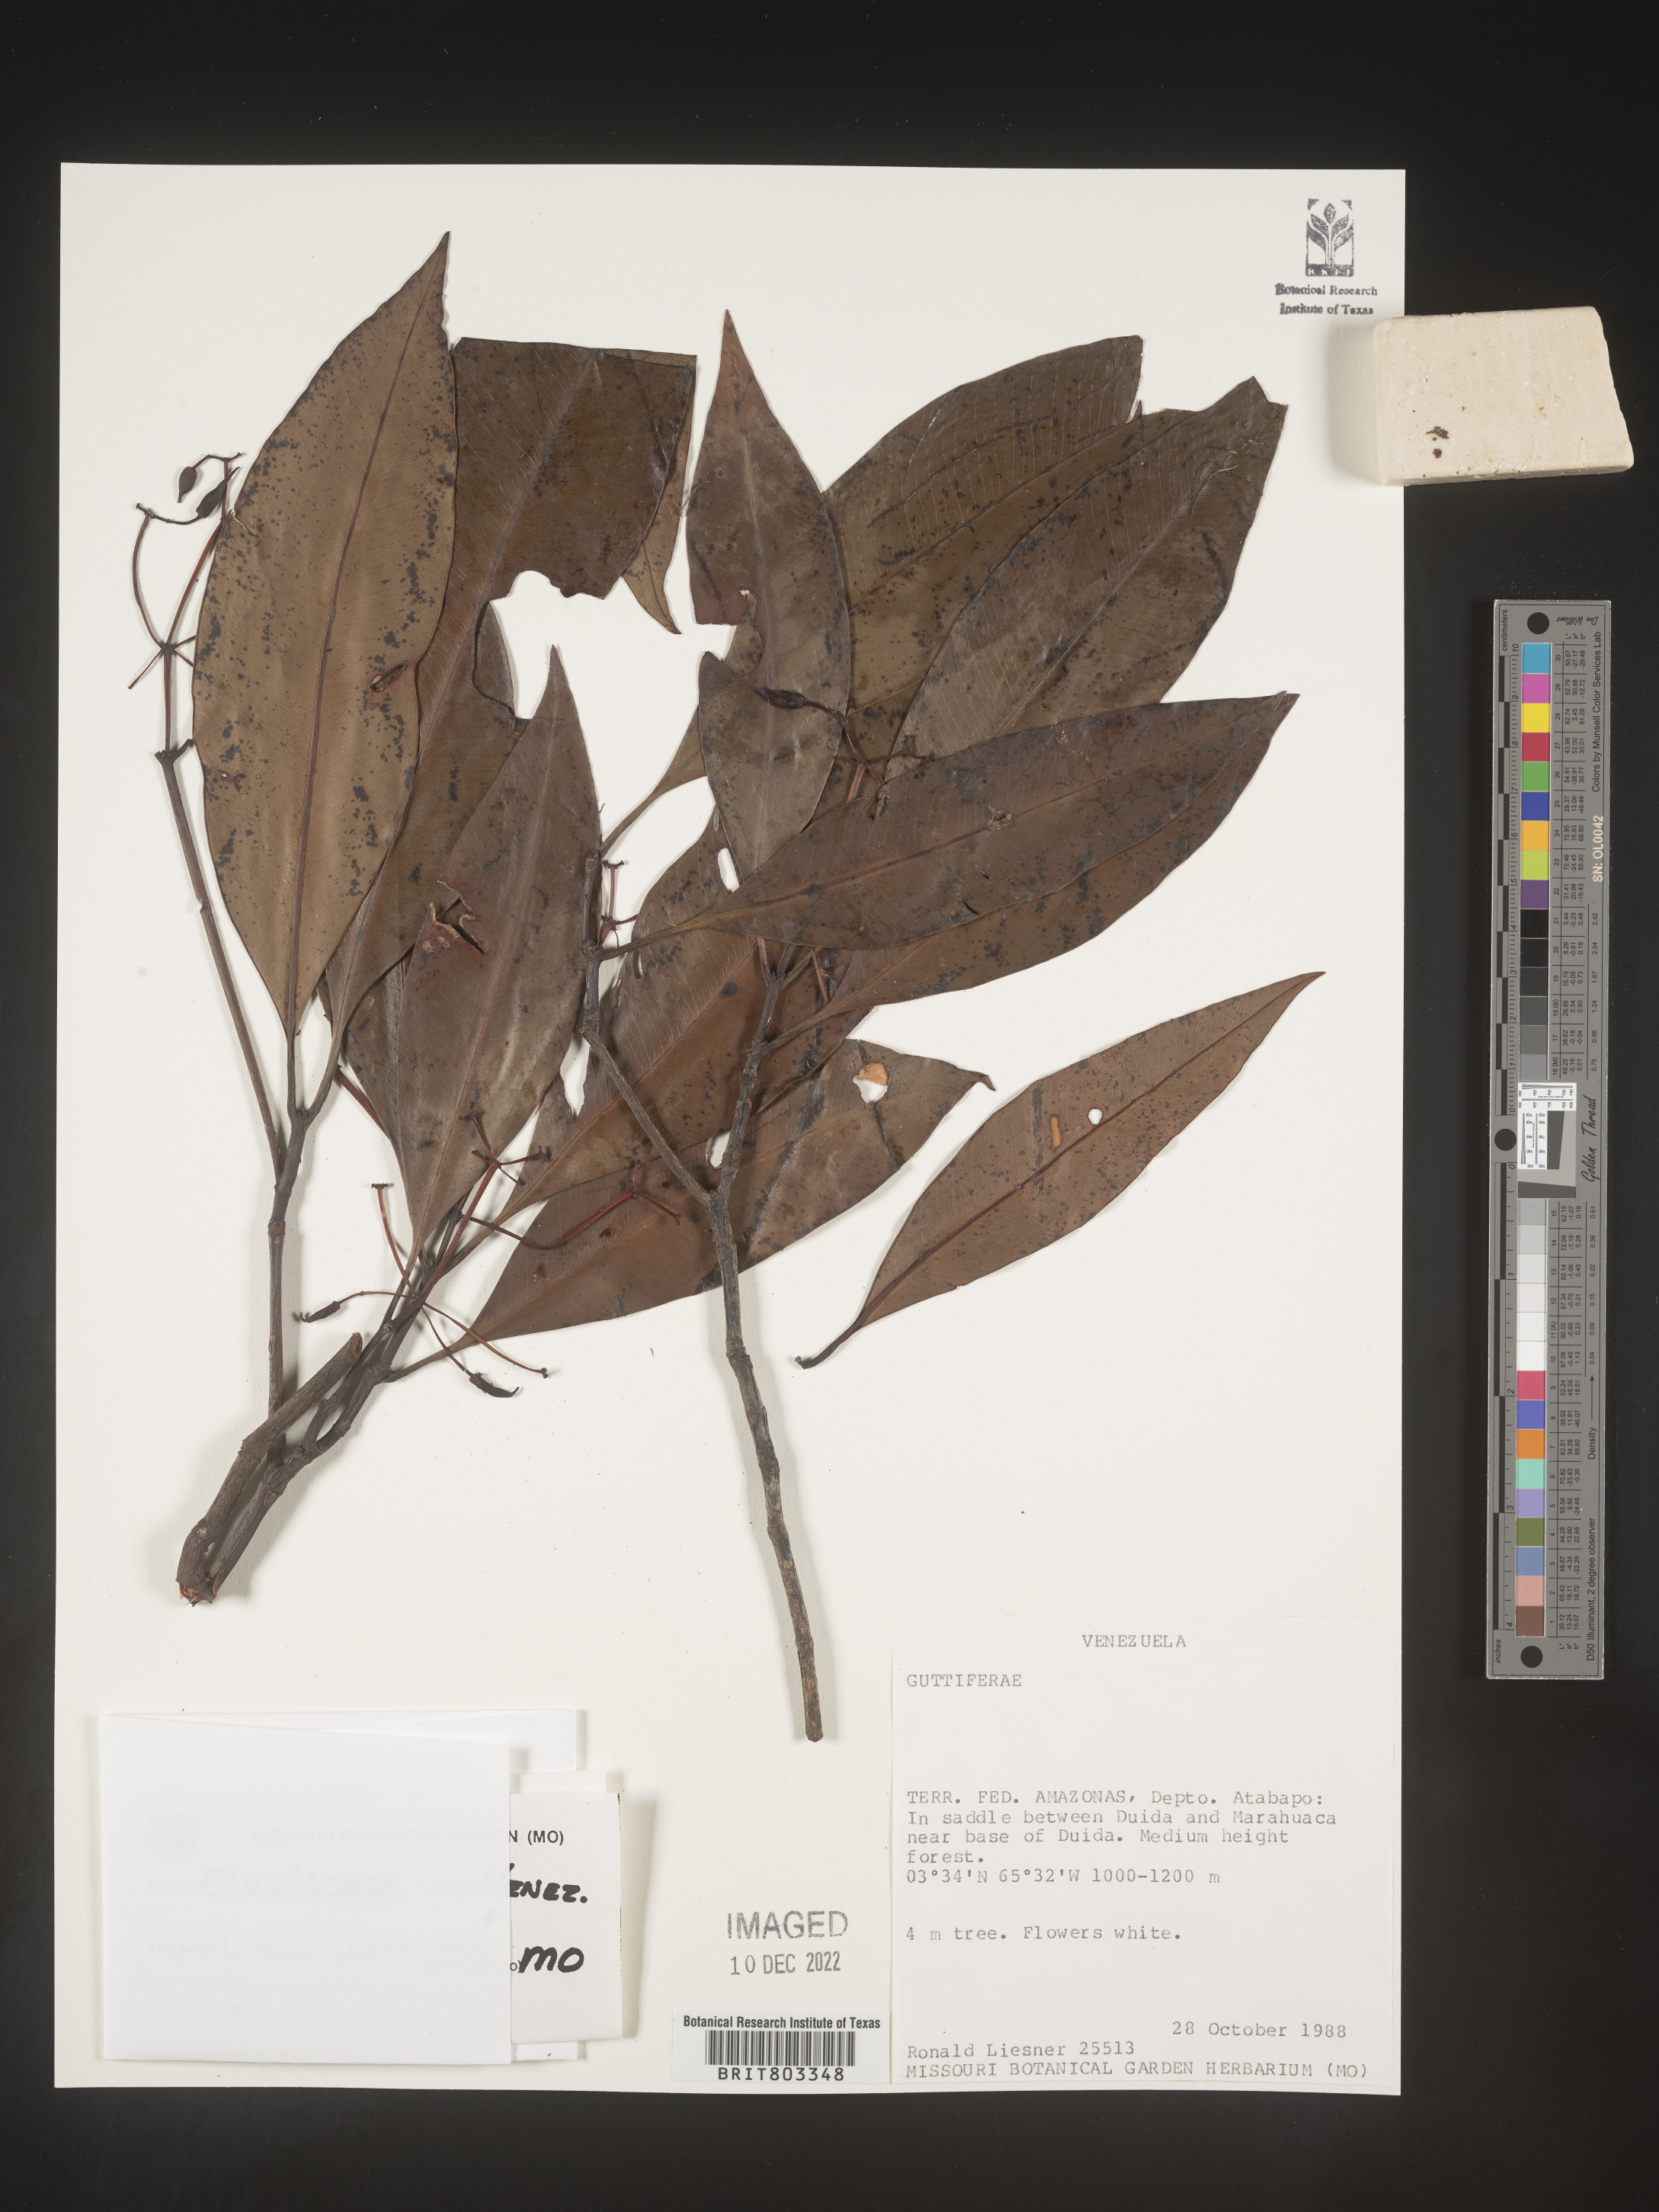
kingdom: Plantae
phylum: Tracheophyta
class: Magnoliopsida
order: Malpighiales
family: Clusiaceae
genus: Tovomita
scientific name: Tovomita
